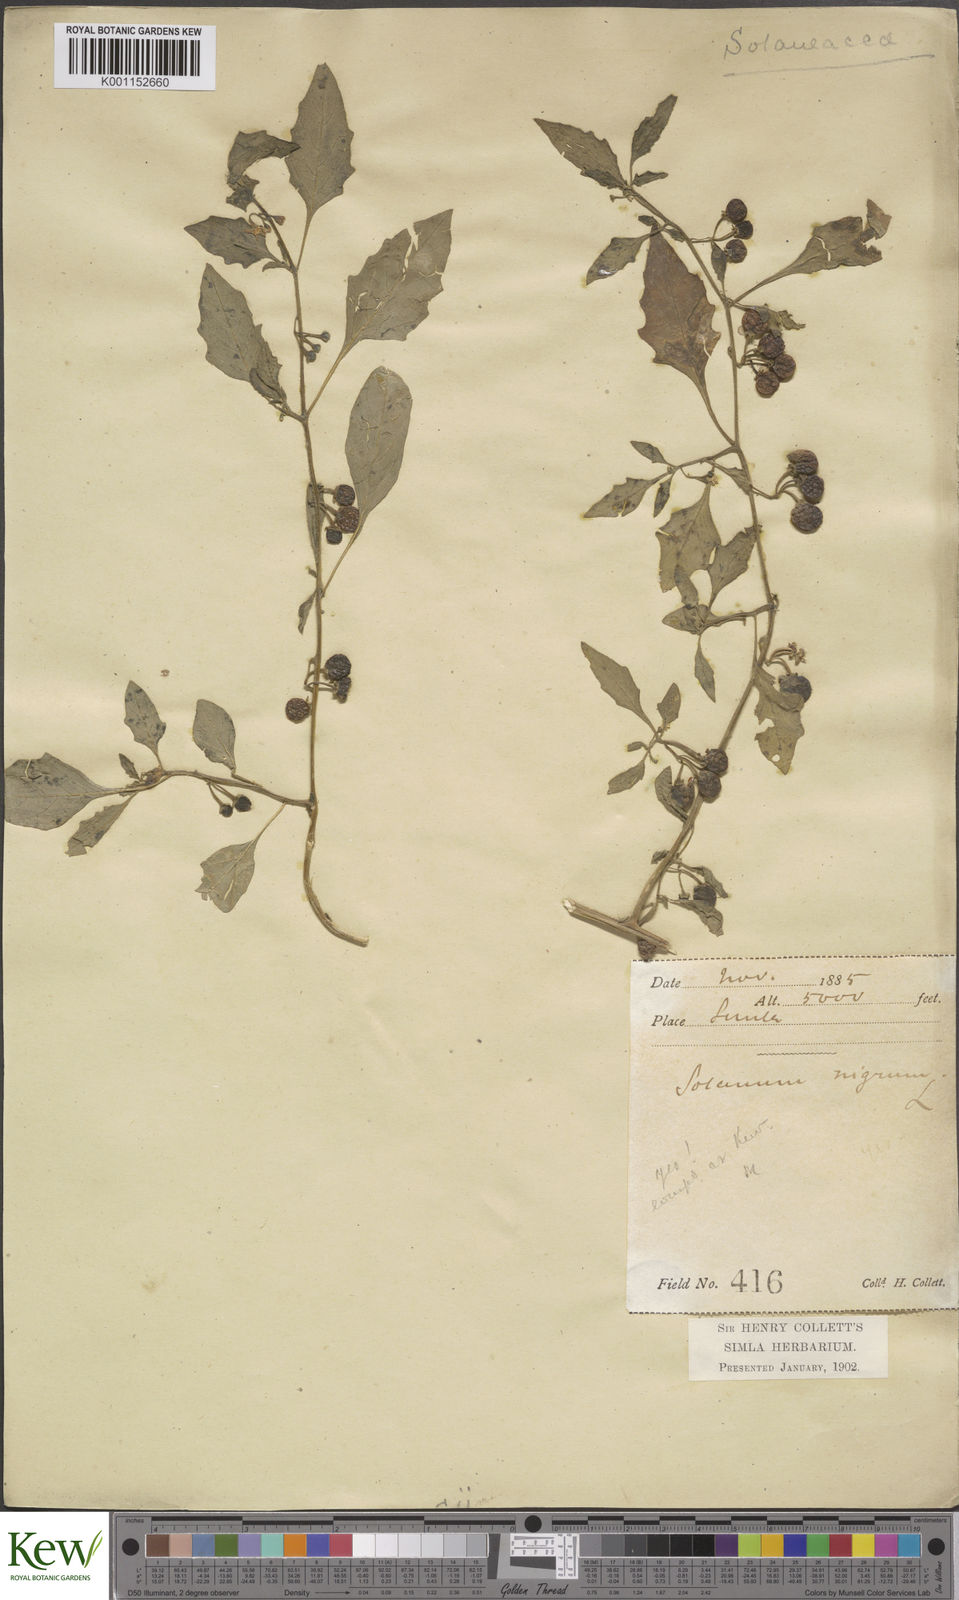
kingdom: Plantae
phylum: Tracheophyta
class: Magnoliopsida
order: Solanales
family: Solanaceae
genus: Solanum
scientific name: Solanum nigrum
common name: Black nightshade
